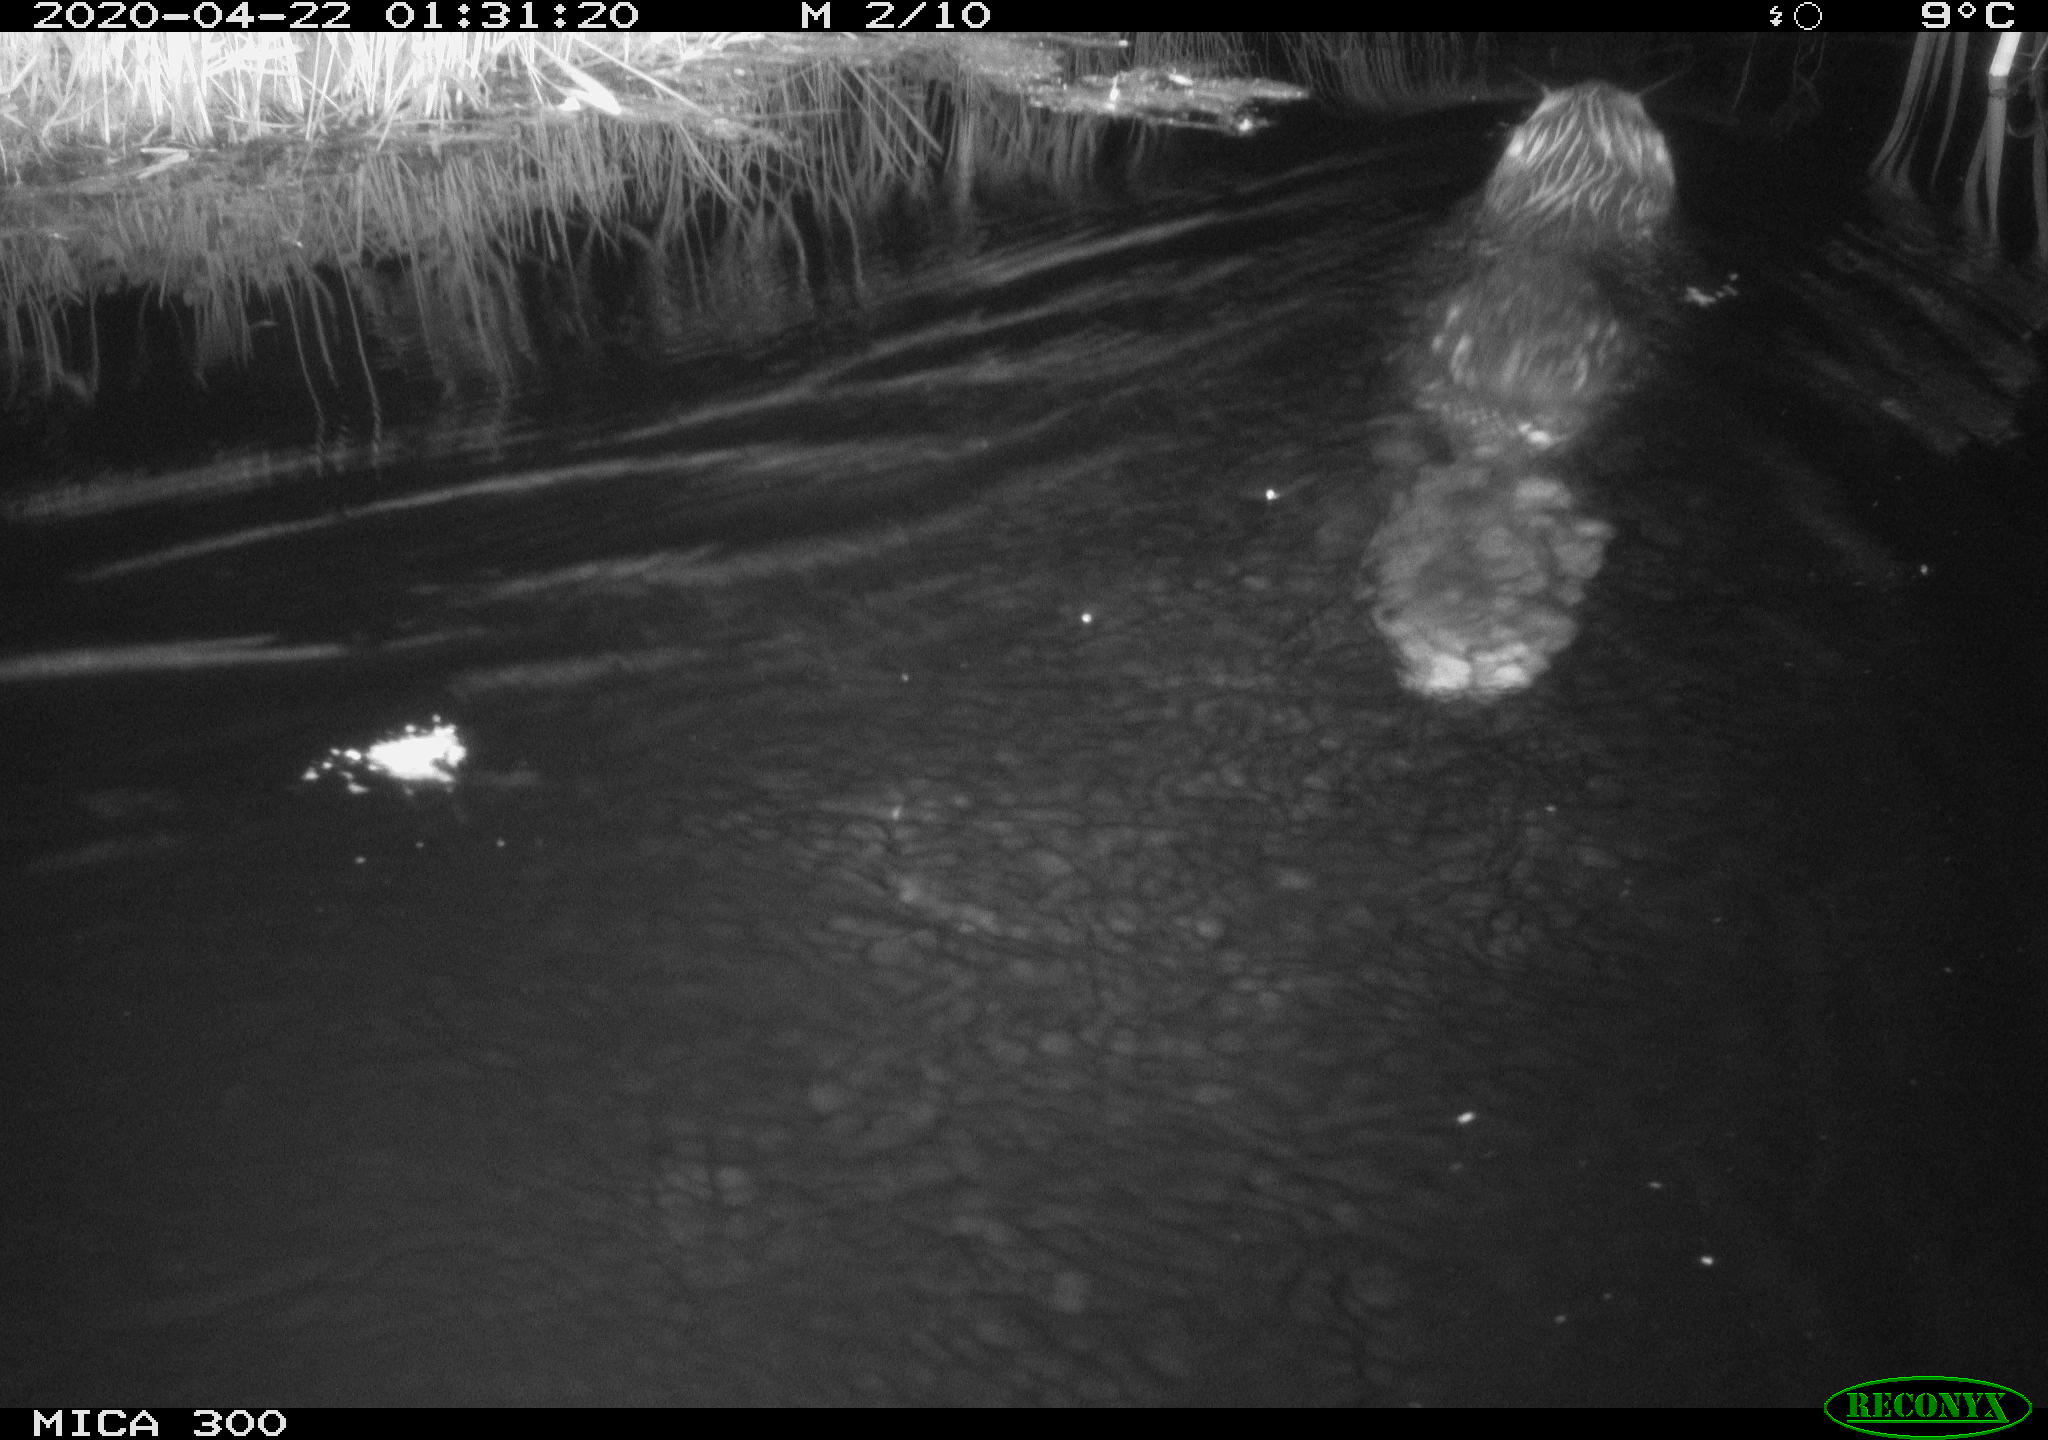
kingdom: Animalia
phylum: Chordata
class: Mammalia
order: Rodentia
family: Castoridae
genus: Castor
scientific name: Castor fiber
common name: Eurasian beaver
